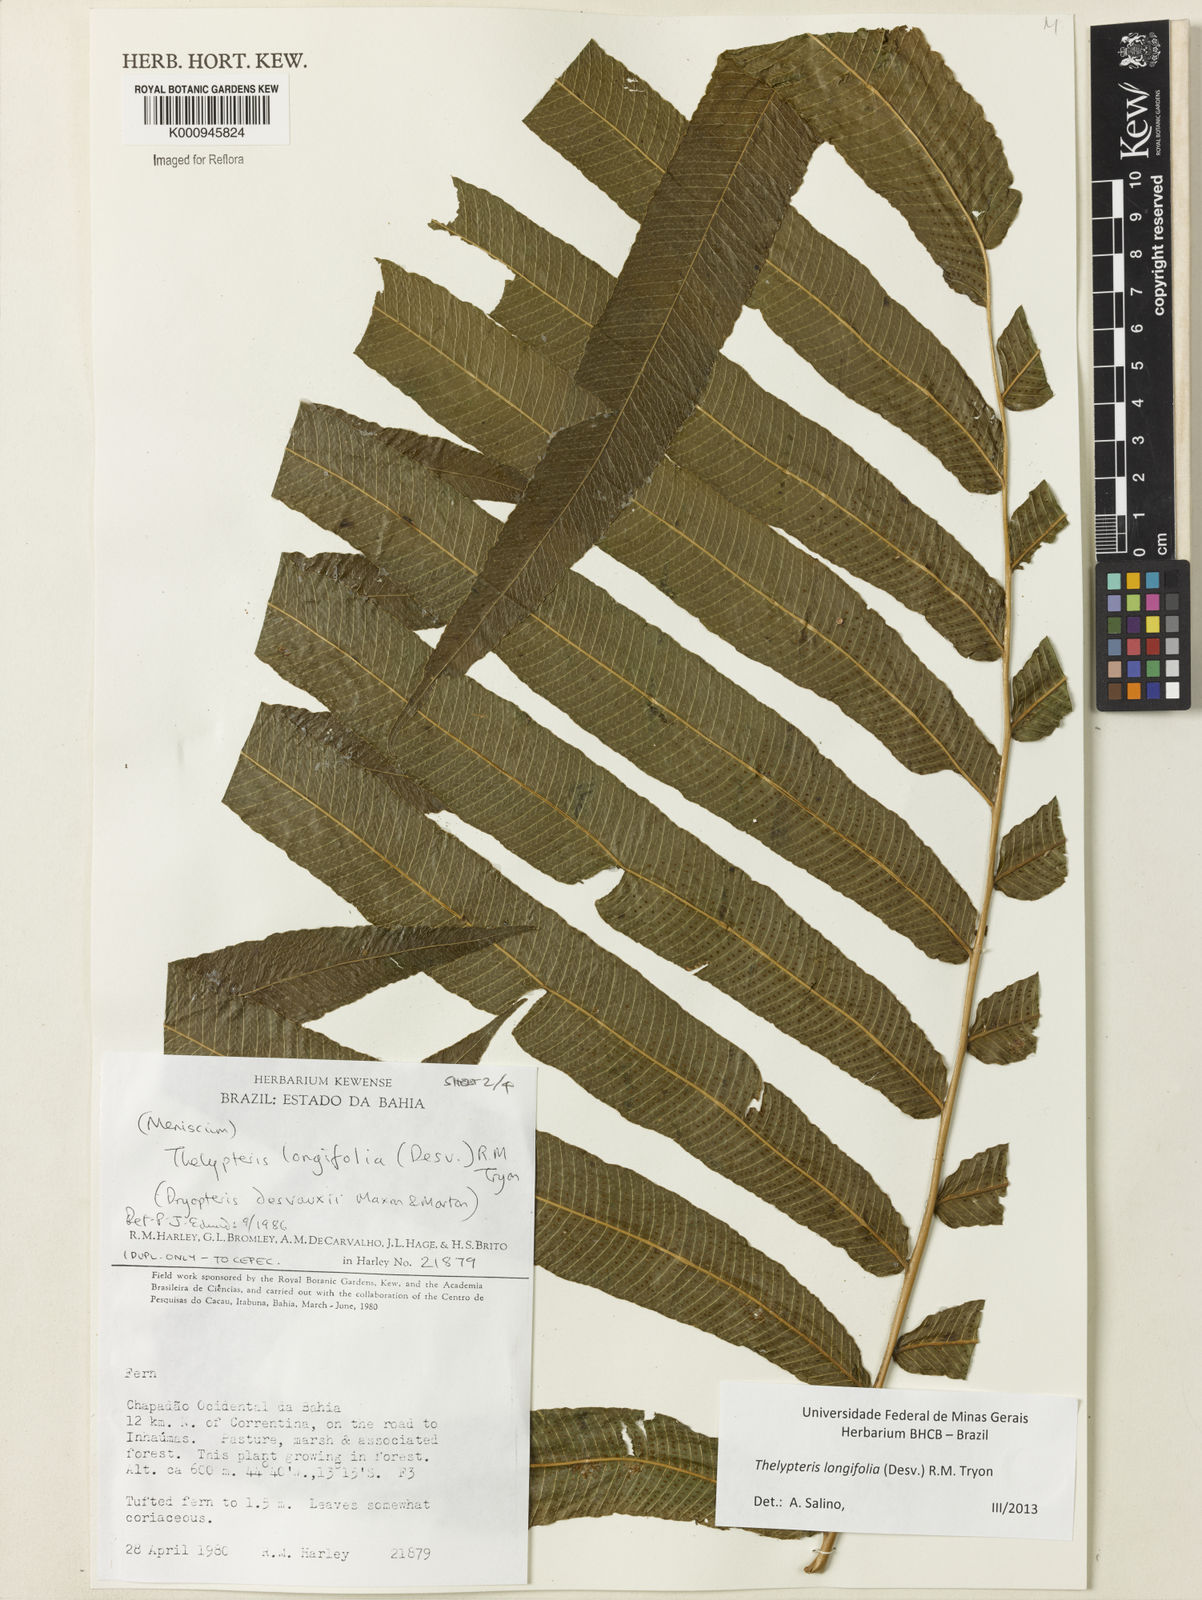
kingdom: Plantae
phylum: Tracheophyta
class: Polypodiopsida
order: Polypodiales
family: Thelypteridaceae
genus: Meniscium
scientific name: Meniscium longifolium
